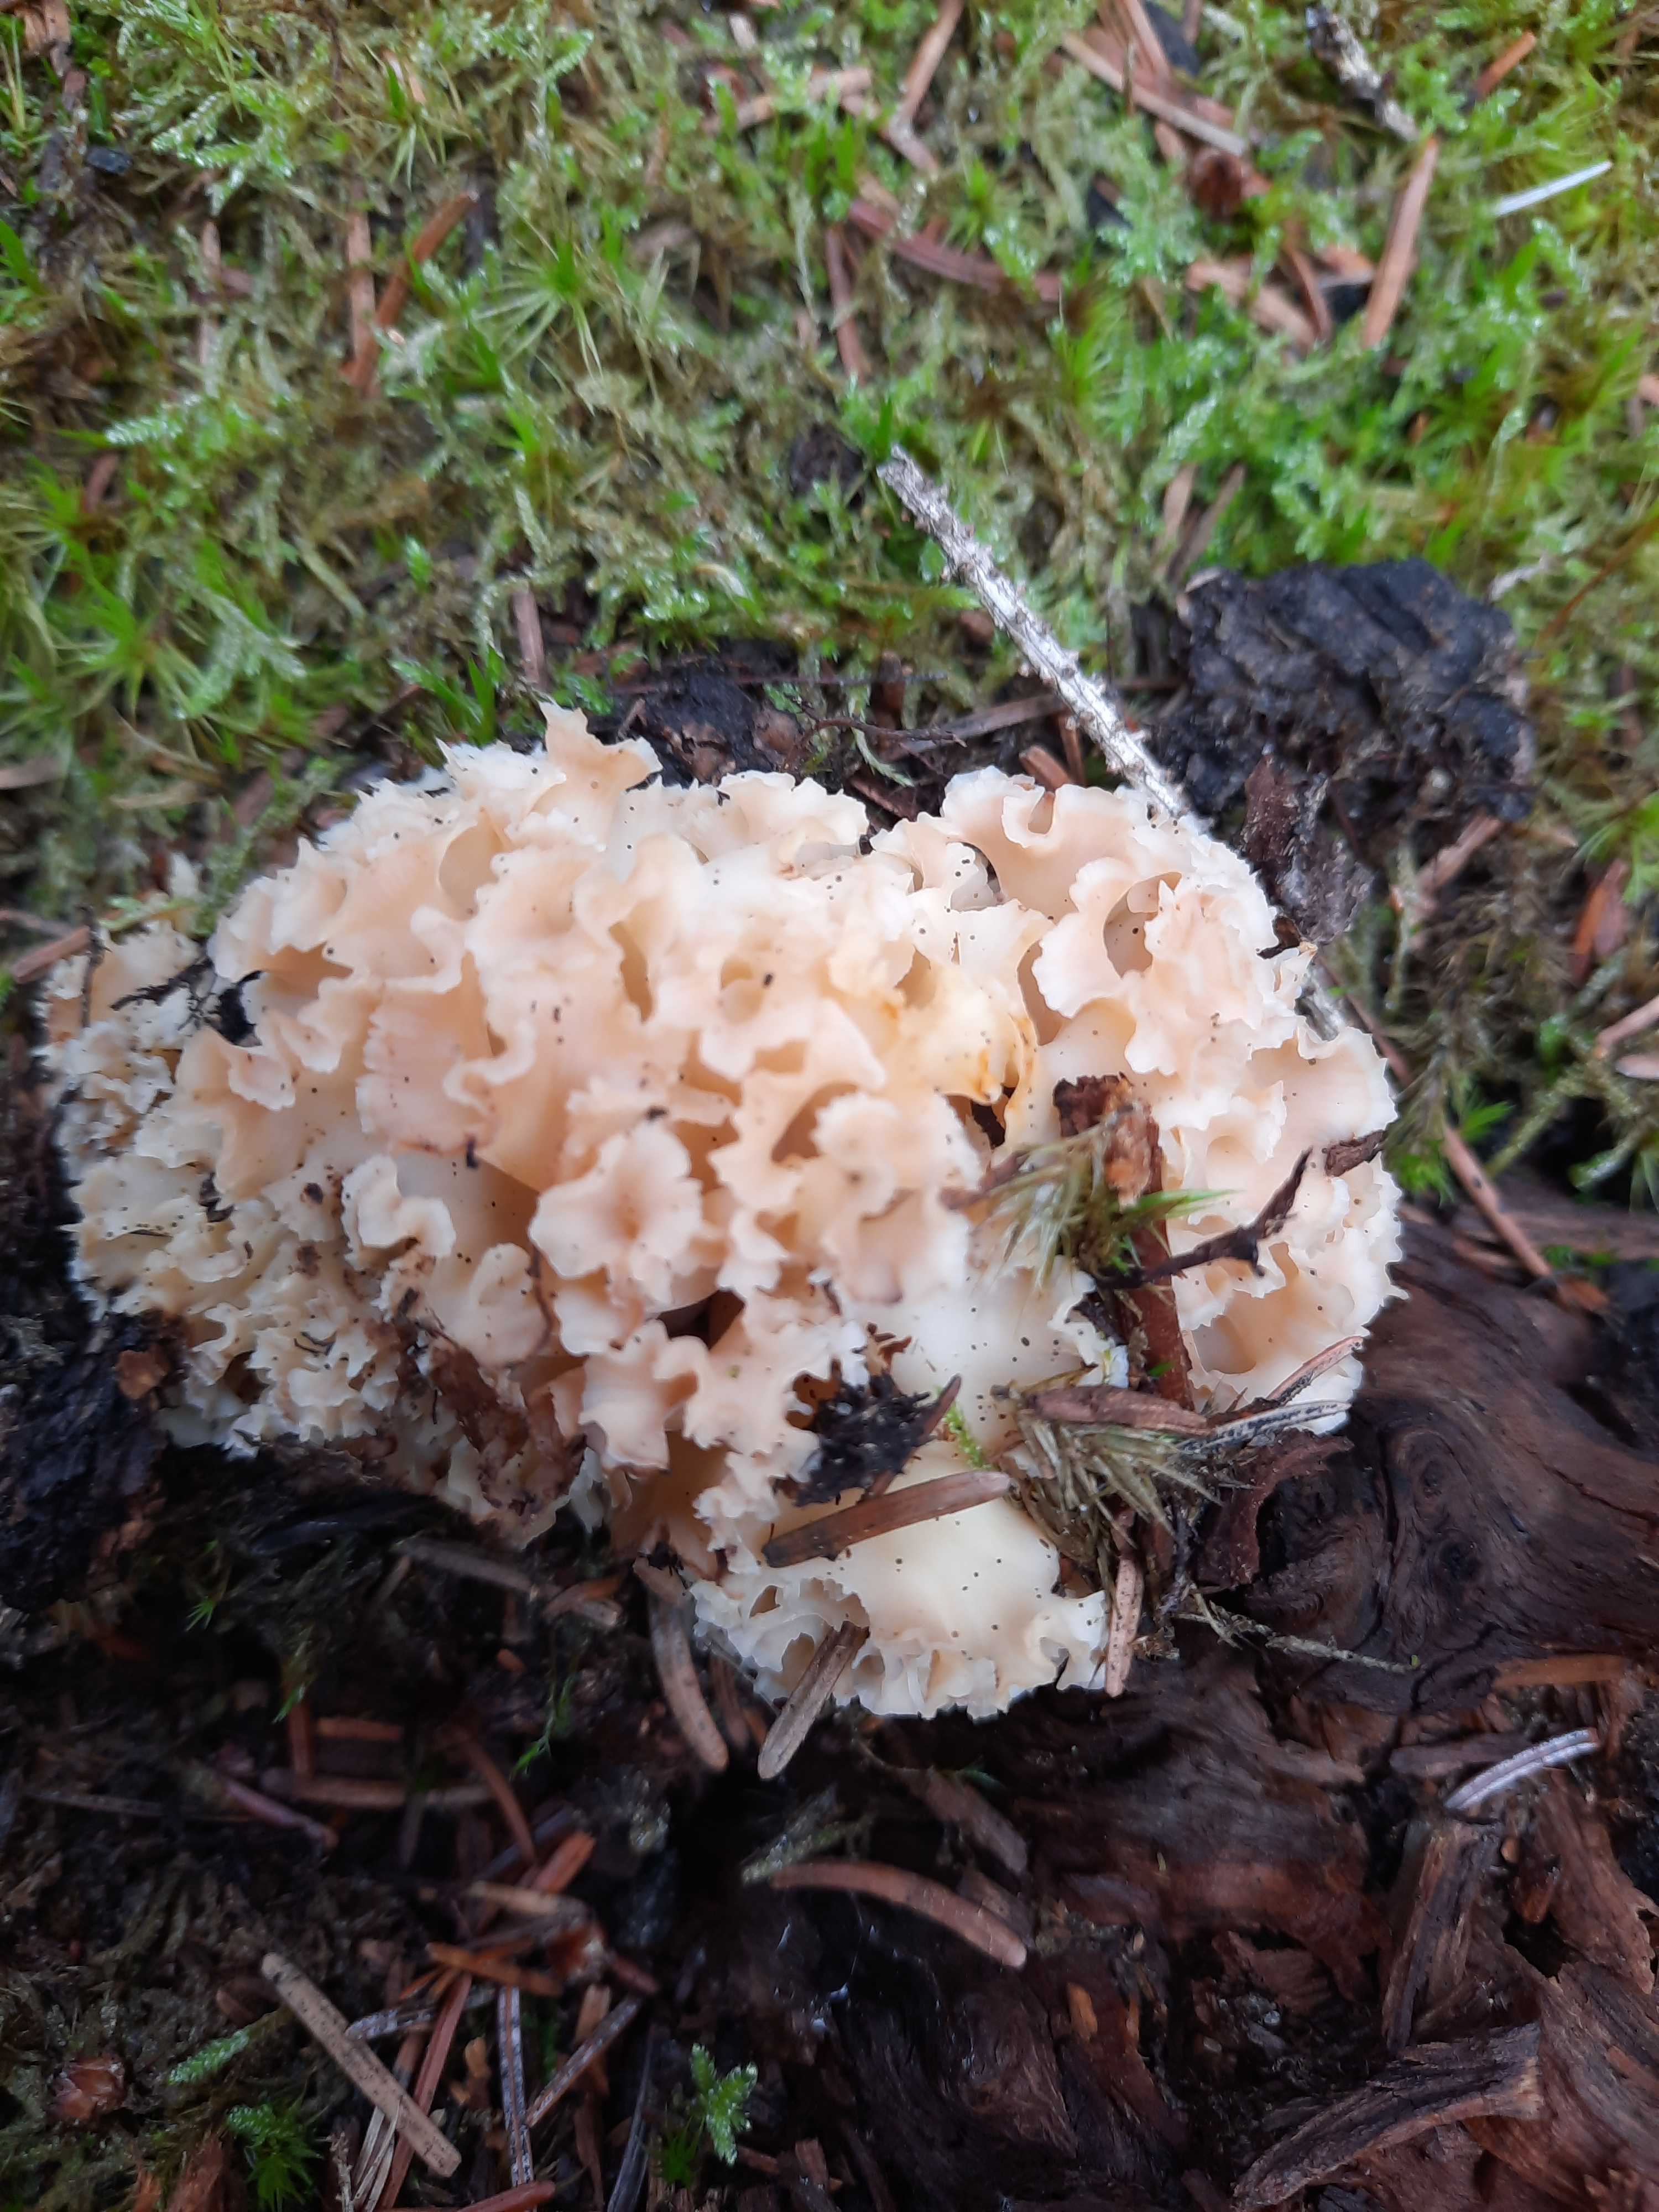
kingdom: Fungi
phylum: Basidiomycota
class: Agaricomycetes
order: Polyporales
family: Sparassidaceae
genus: Sparassis
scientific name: Sparassis crispa
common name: kruset blomkålssvamp
